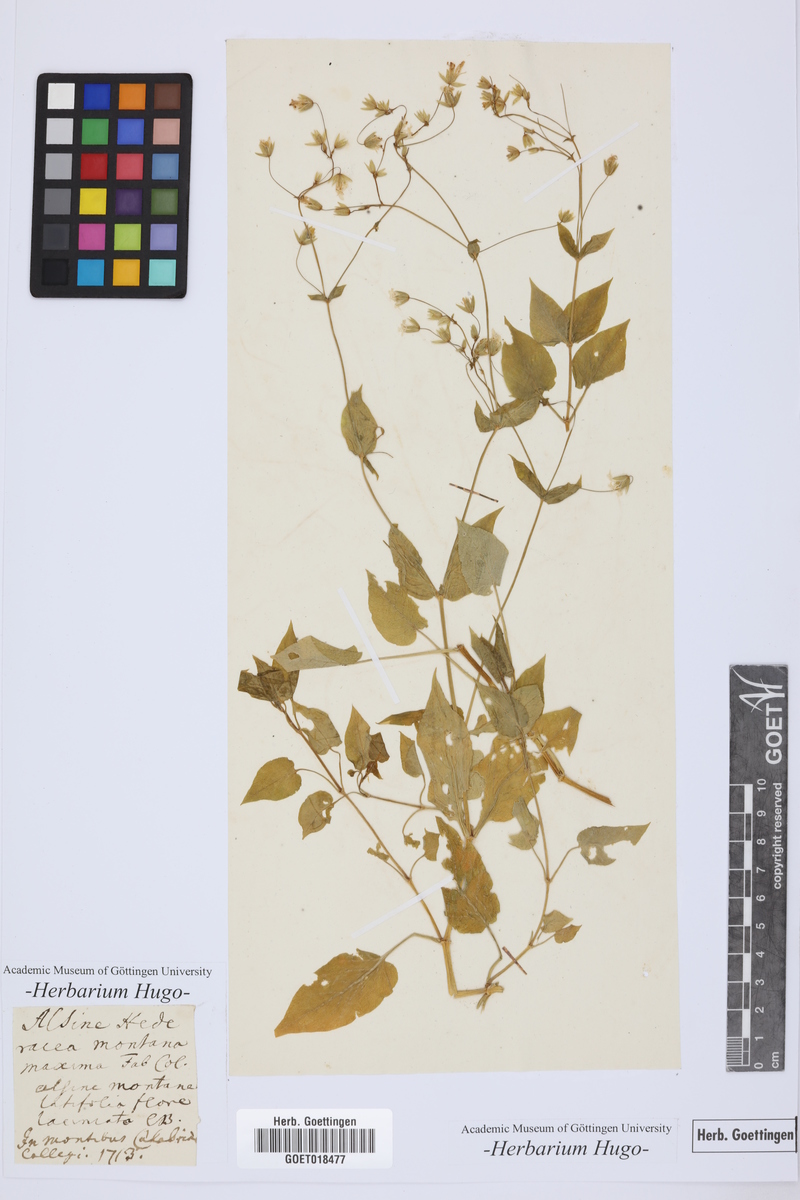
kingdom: Plantae
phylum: Tracheophyta
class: Magnoliopsida
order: Caryophyllales
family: Caryophyllaceae
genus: Stellaria
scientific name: Stellaria nemorum
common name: Wood stitchwort
